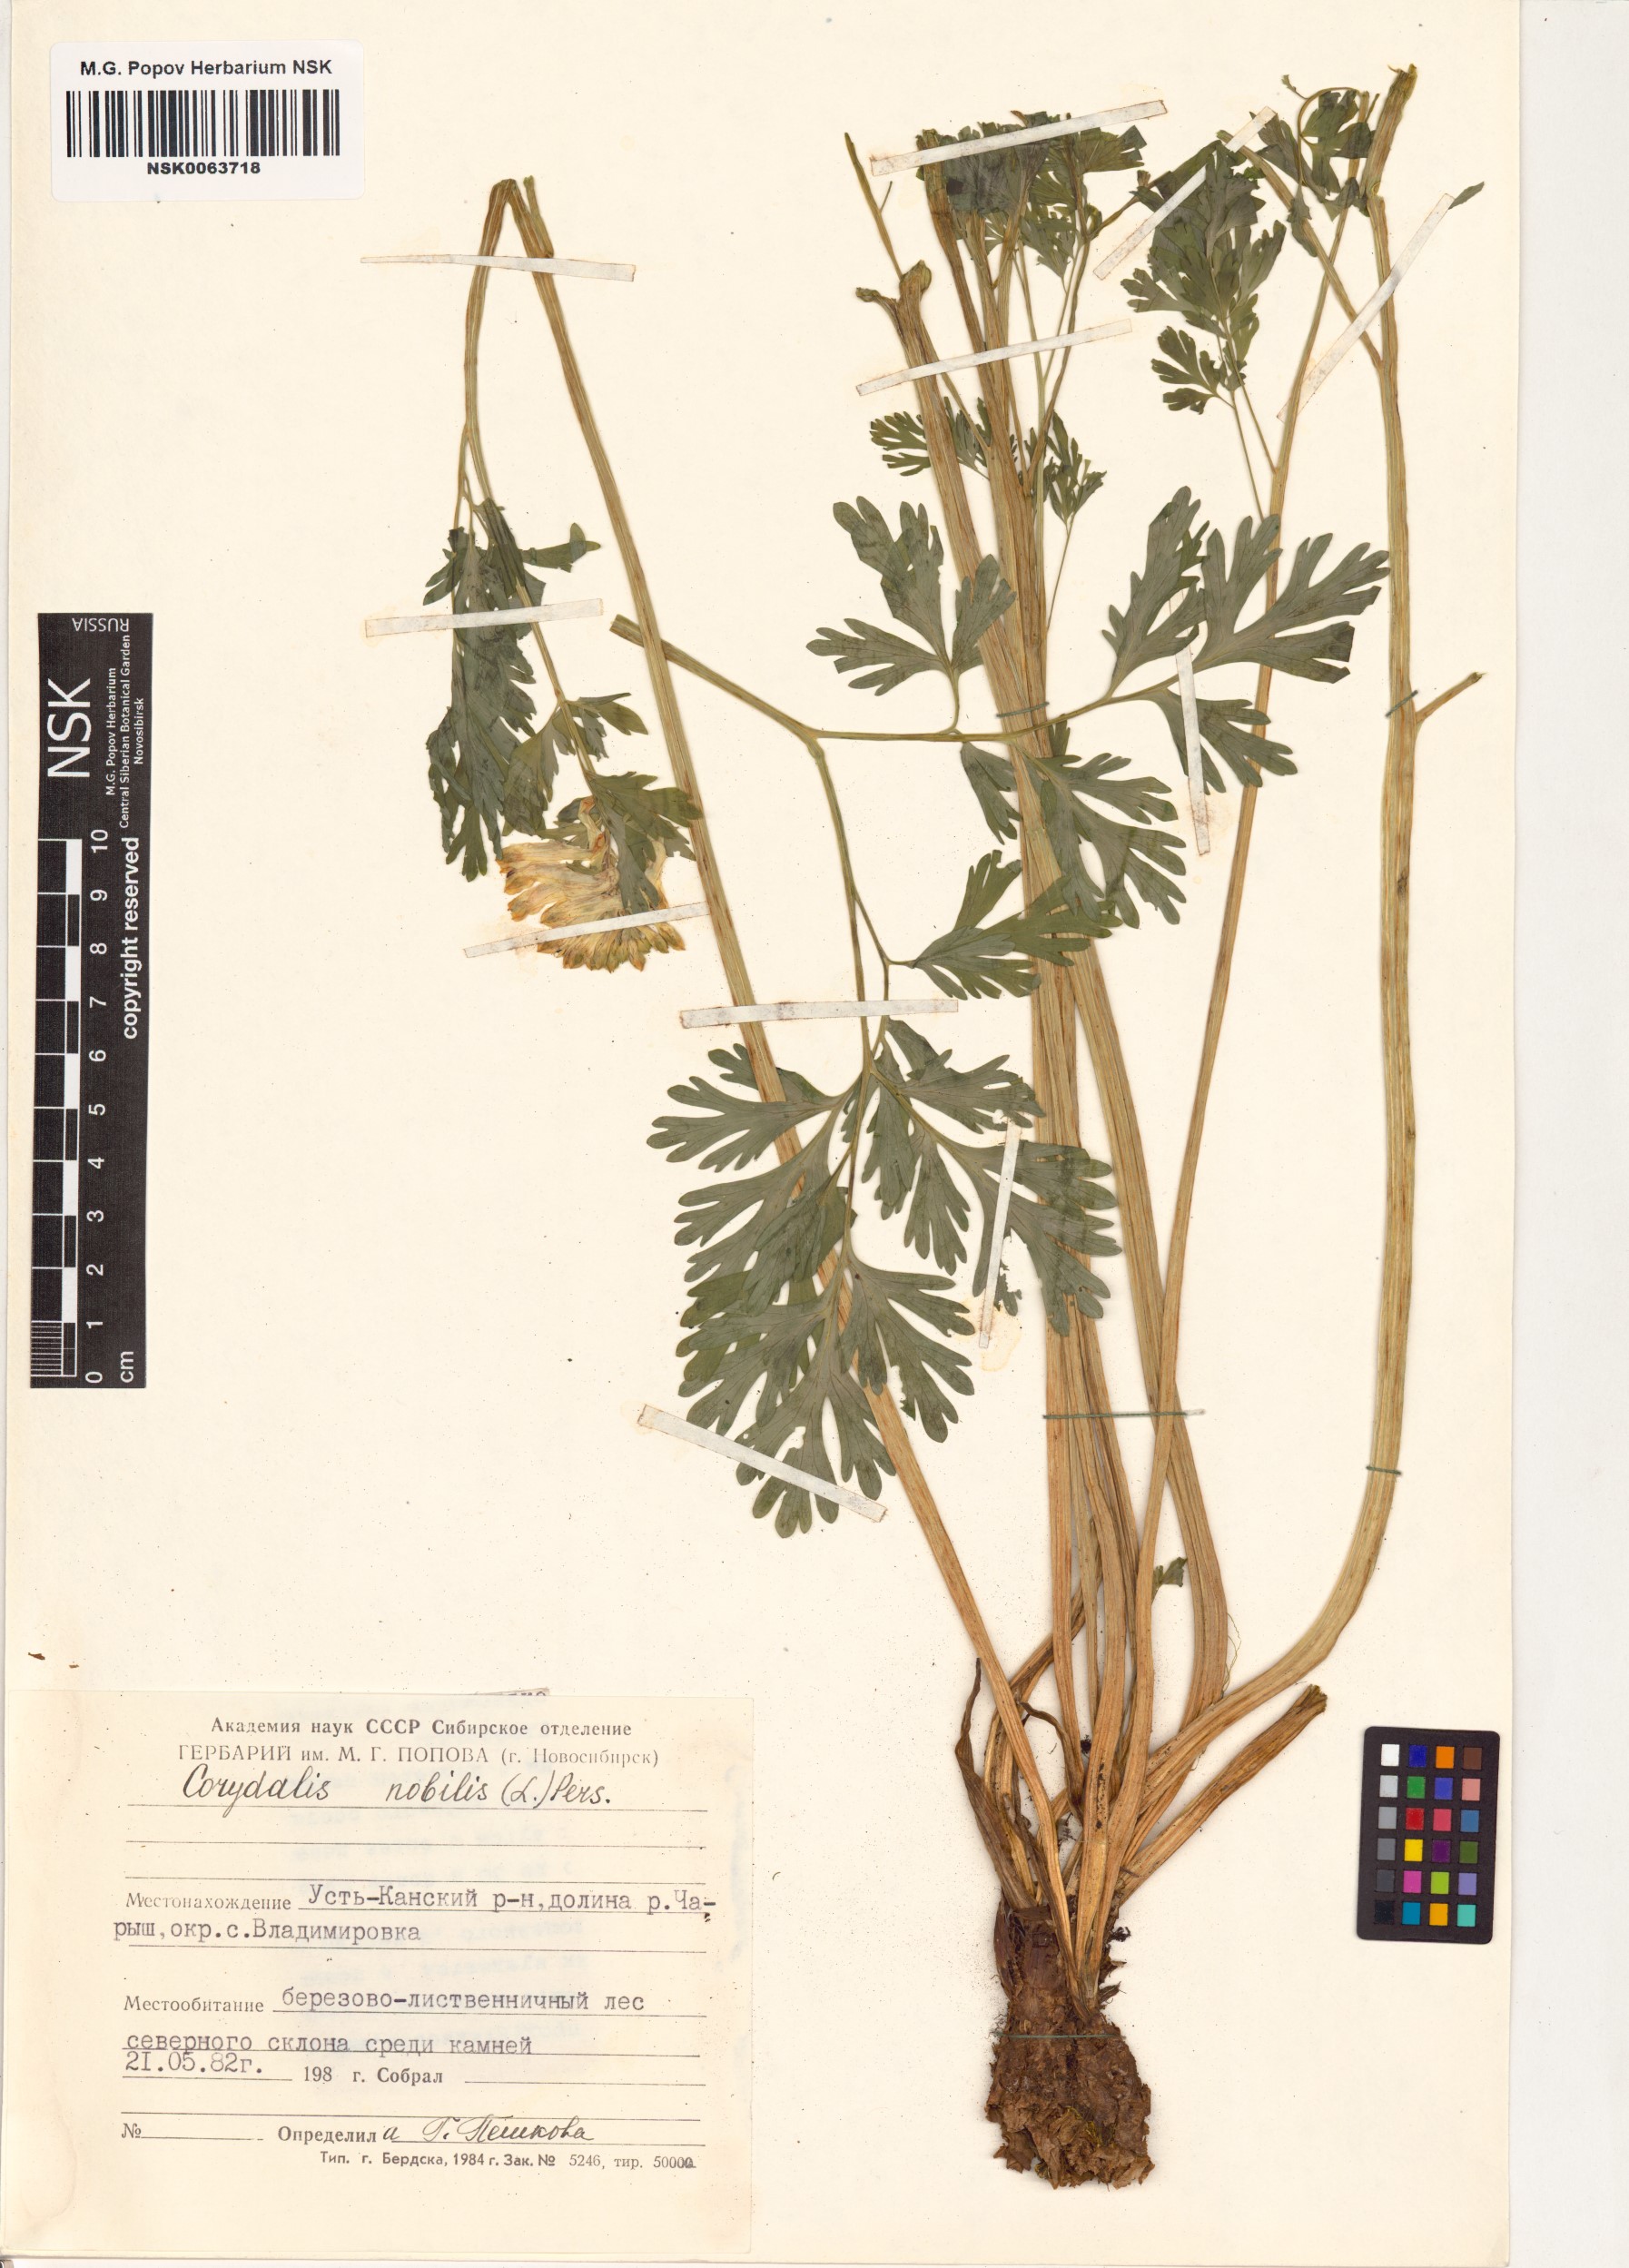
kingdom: Plantae
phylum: Tracheophyta
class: Magnoliopsida
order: Ranunculales
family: Papaveraceae
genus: Corydalis
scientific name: Corydalis nobilis
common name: Siberian corydalis
